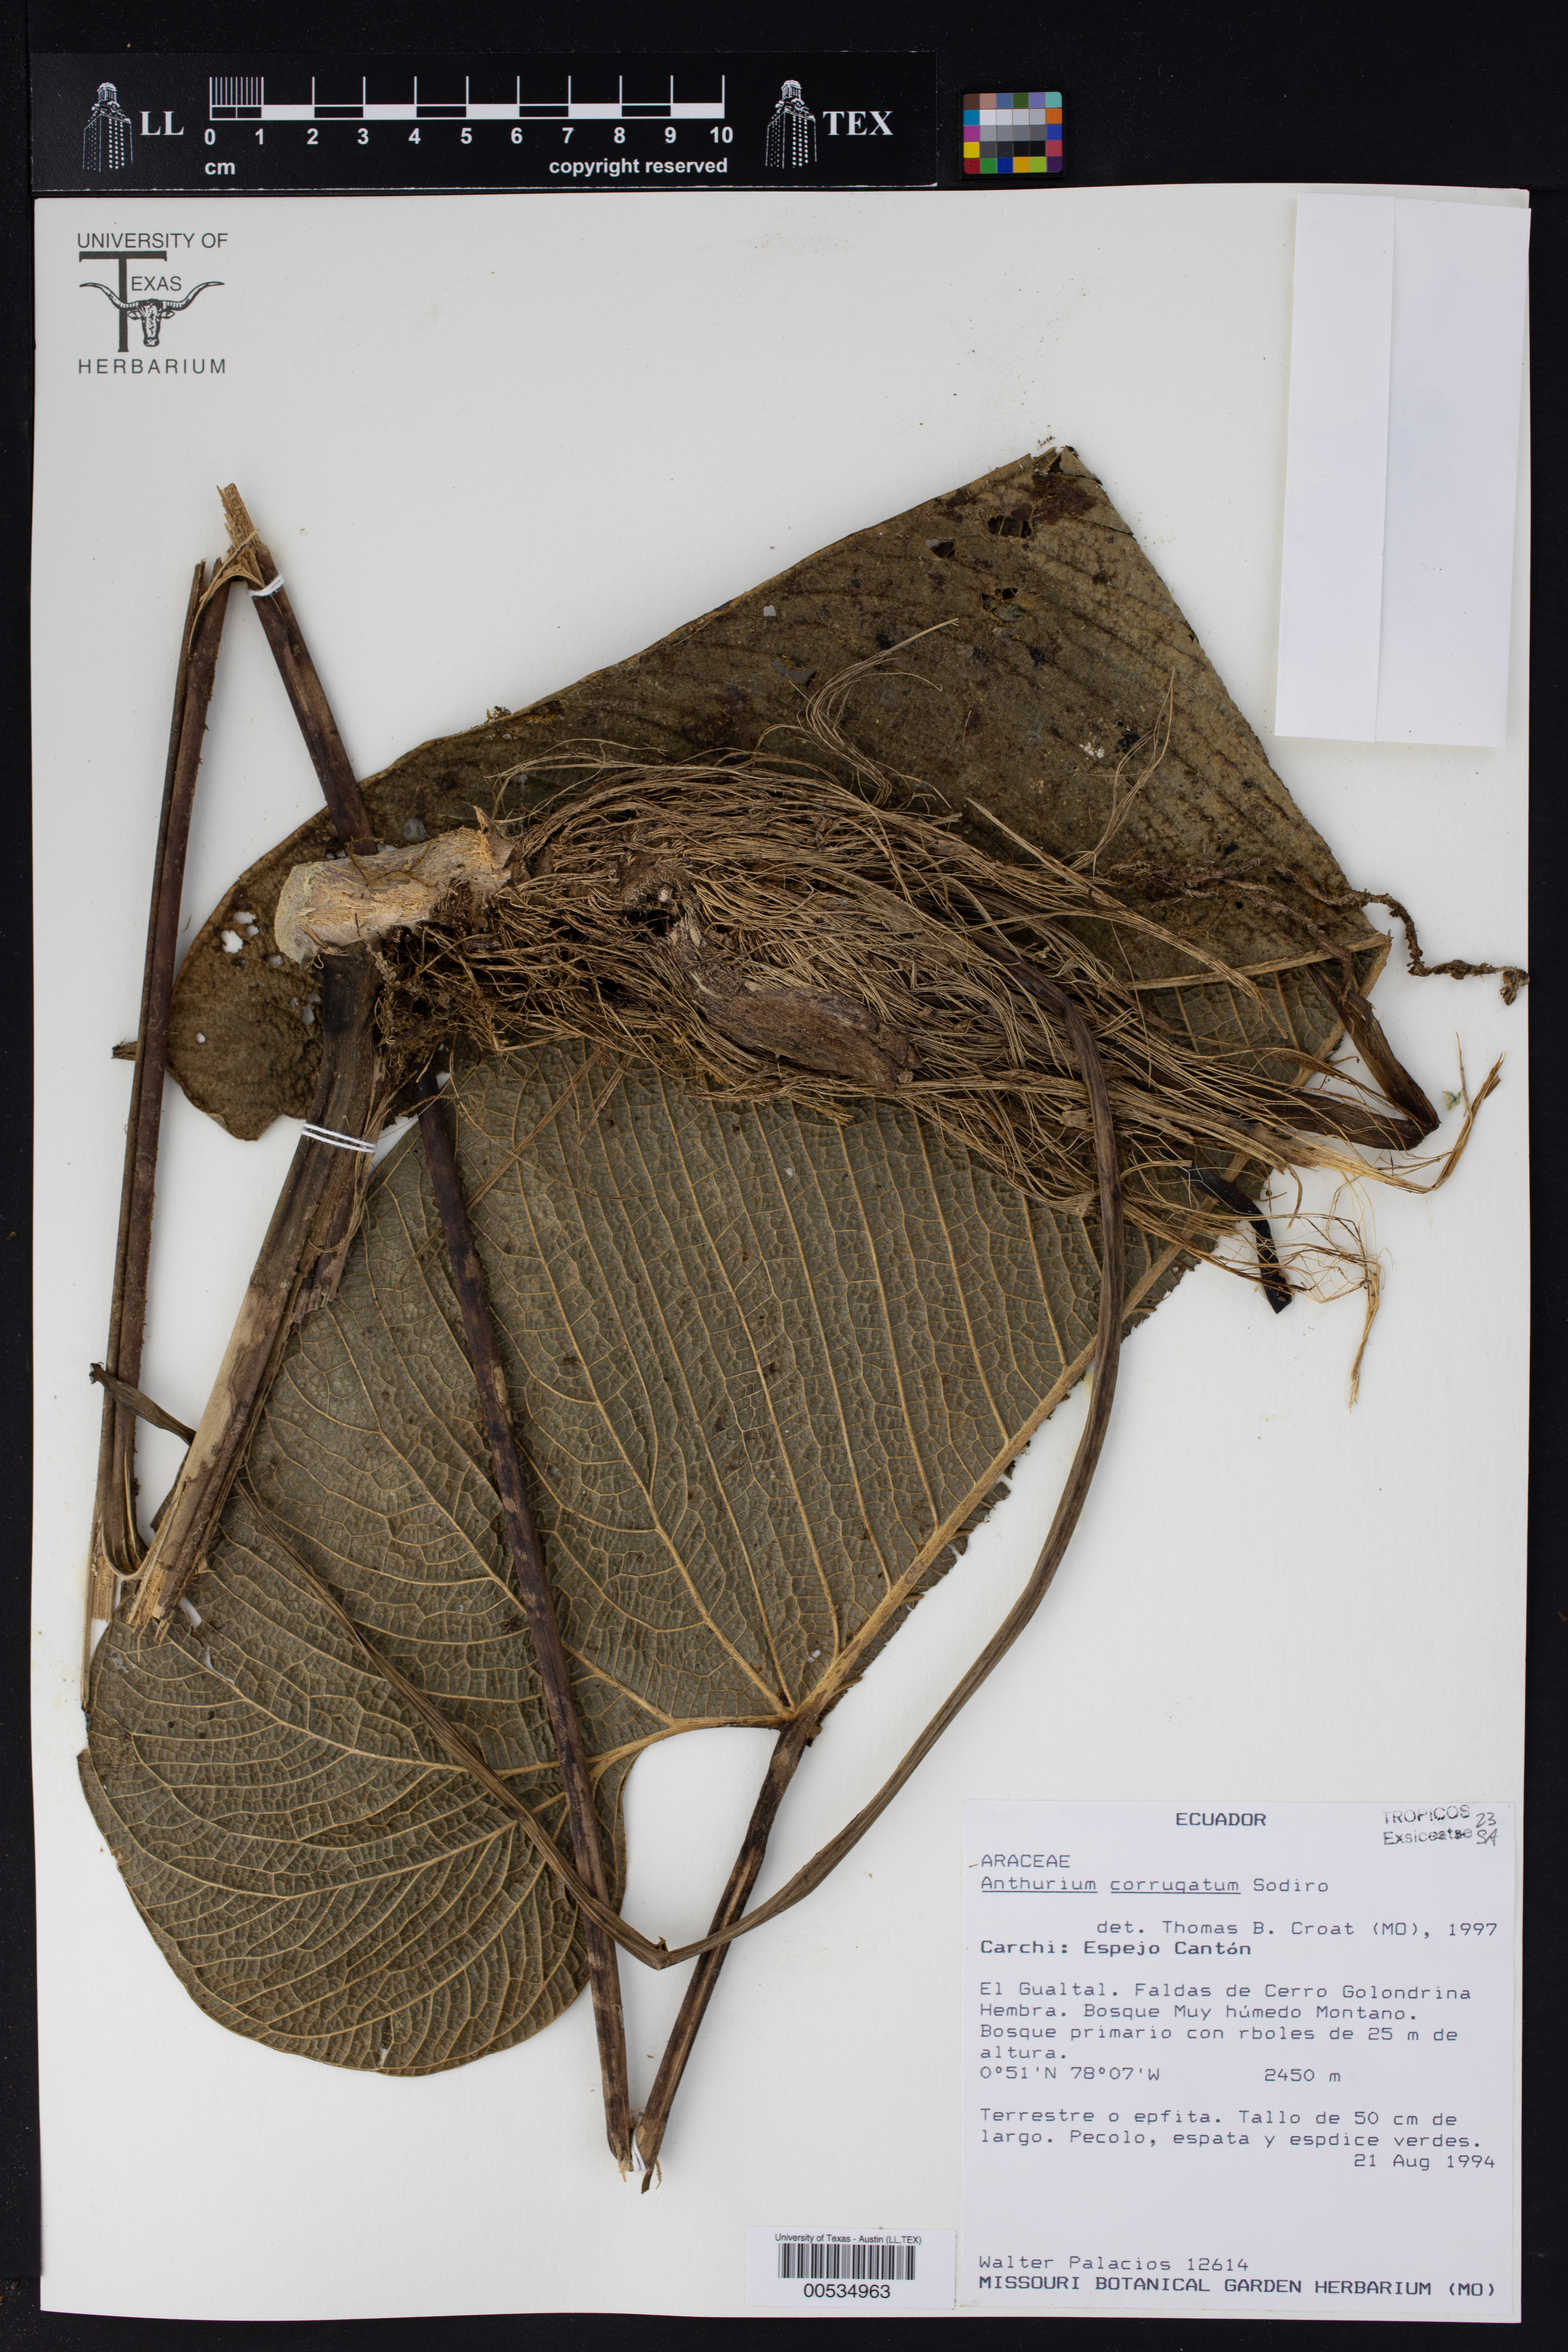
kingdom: Plantae
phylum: Tracheophyta
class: Liliopsida
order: Alismatales
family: Araceae
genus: Anthurium
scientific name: Anthurium corrugatum
